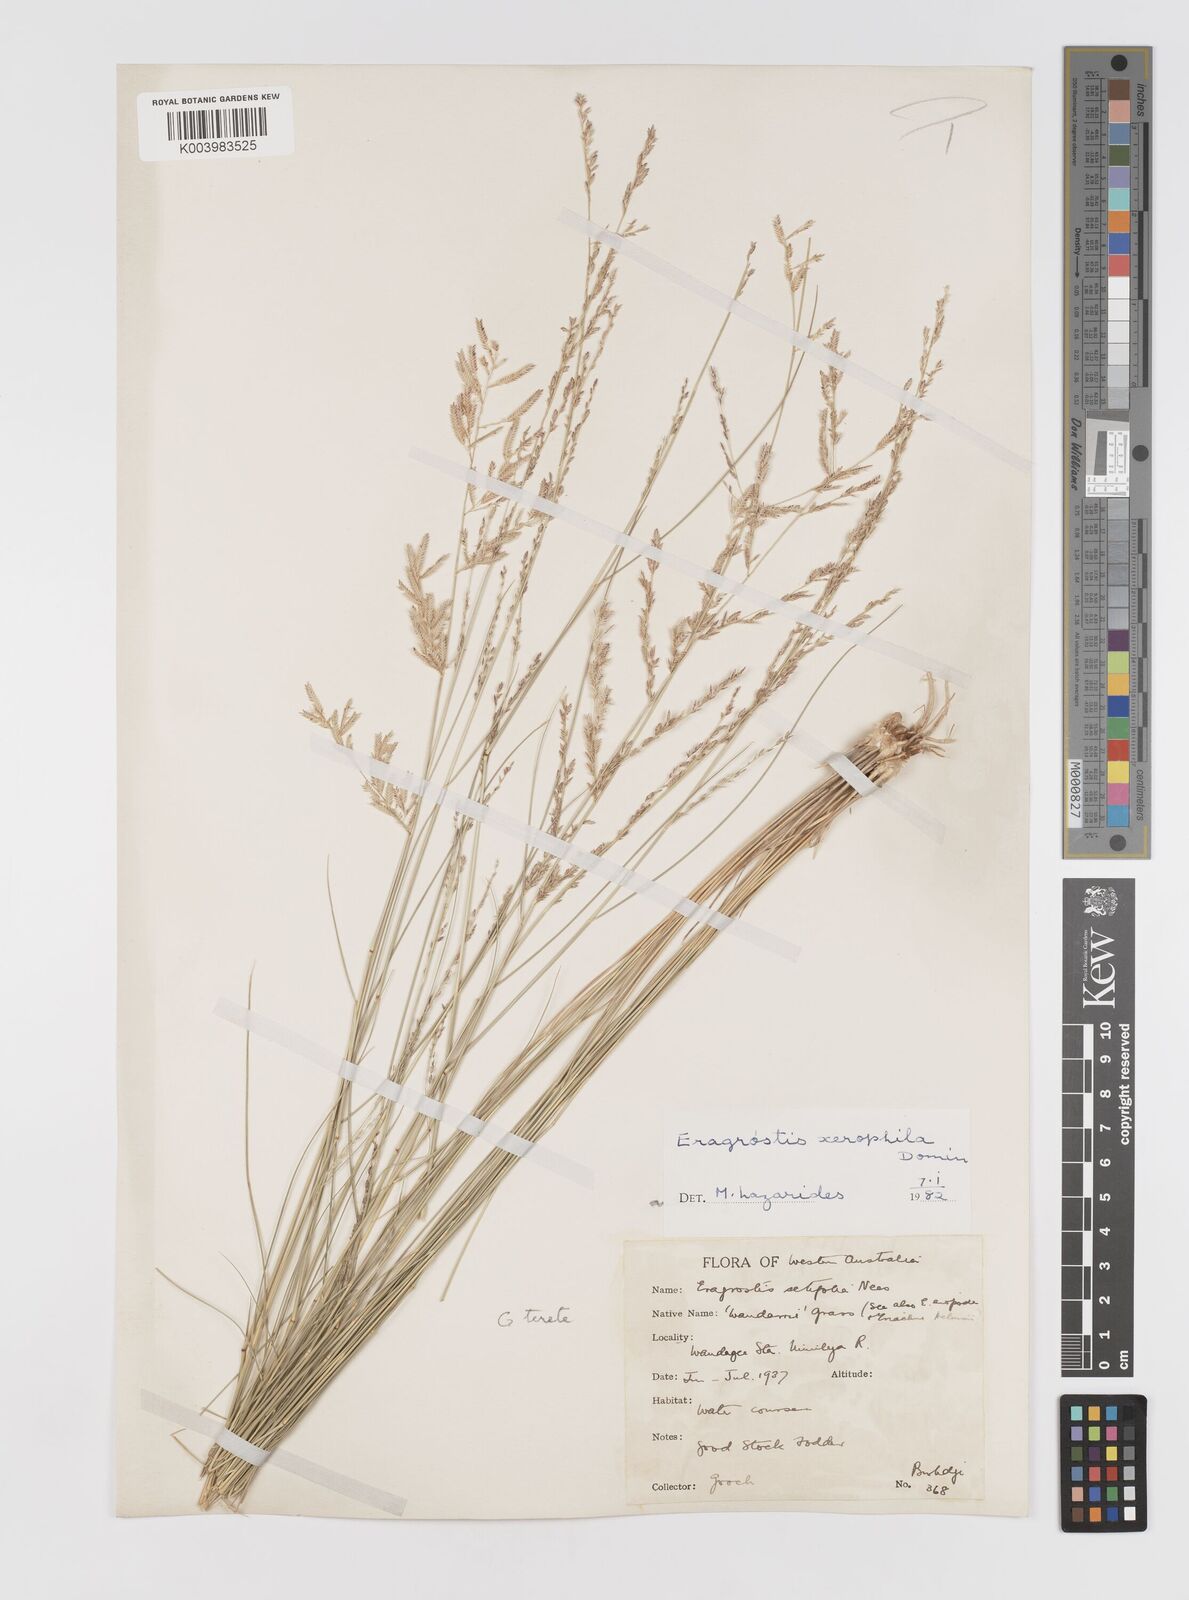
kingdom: Plantae
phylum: Tracheophyta
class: Liliopsida
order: Poales
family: Poaceae
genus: Eragrostis
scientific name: Eragrostis xerophila
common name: Wire wandarrie grass
